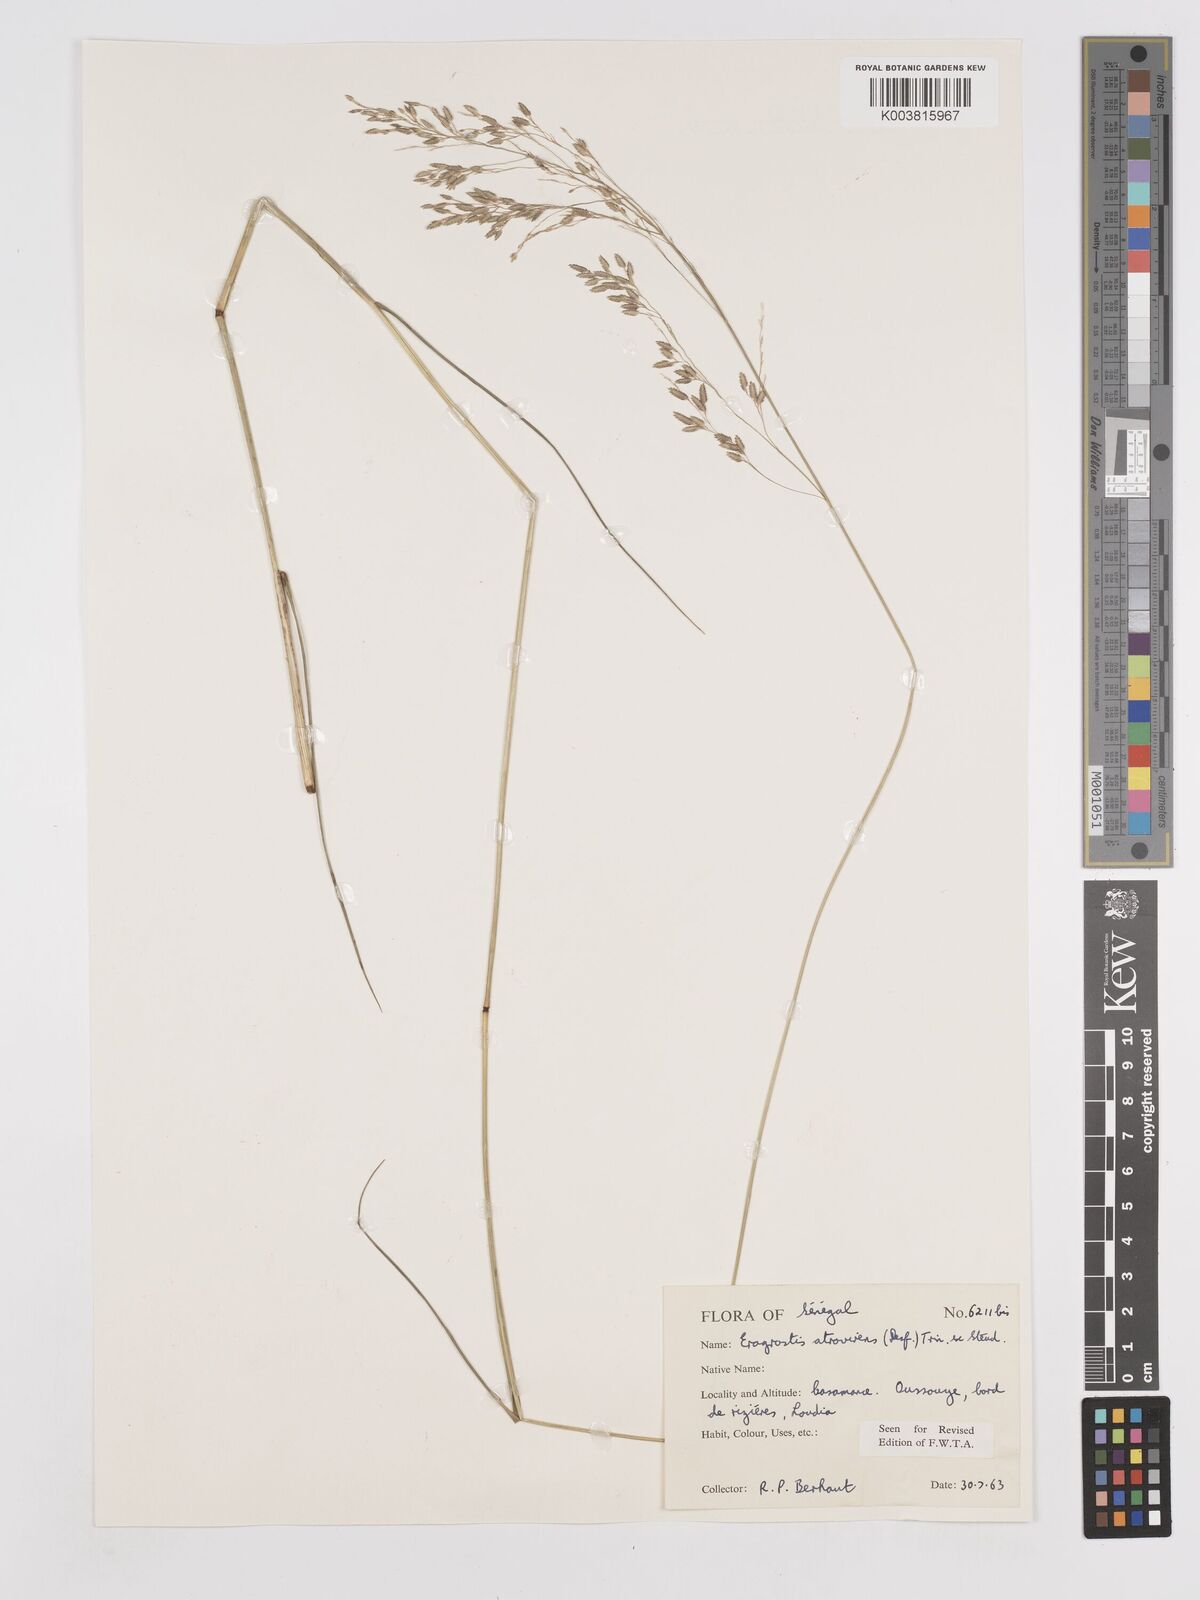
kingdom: Plantae
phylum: Tracheophyta
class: Liliopsida
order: Poales
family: Poaceae
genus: Eragrostis
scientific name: Eragrostis atrovirens
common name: Thalia lovegrass
